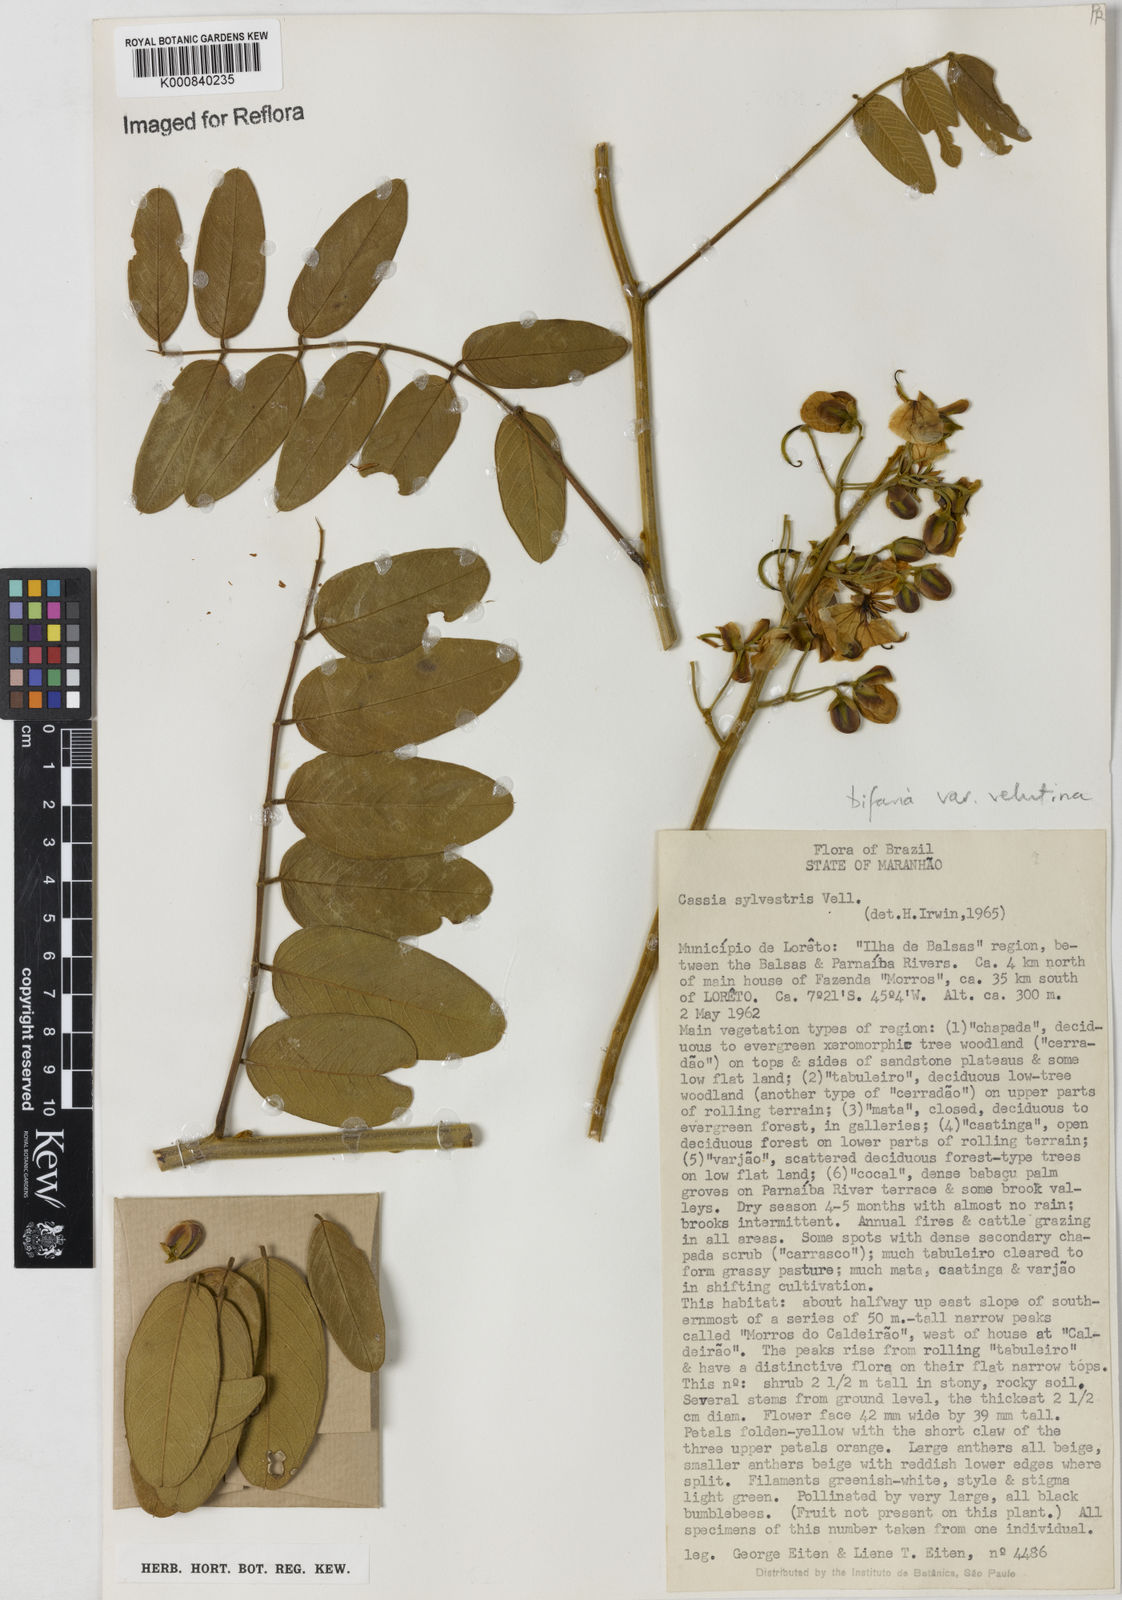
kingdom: Plantae
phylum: Tracheophyta
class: Magnoliopsida
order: Fabales
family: Fabaceae
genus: Senna
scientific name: Senna silvestris
